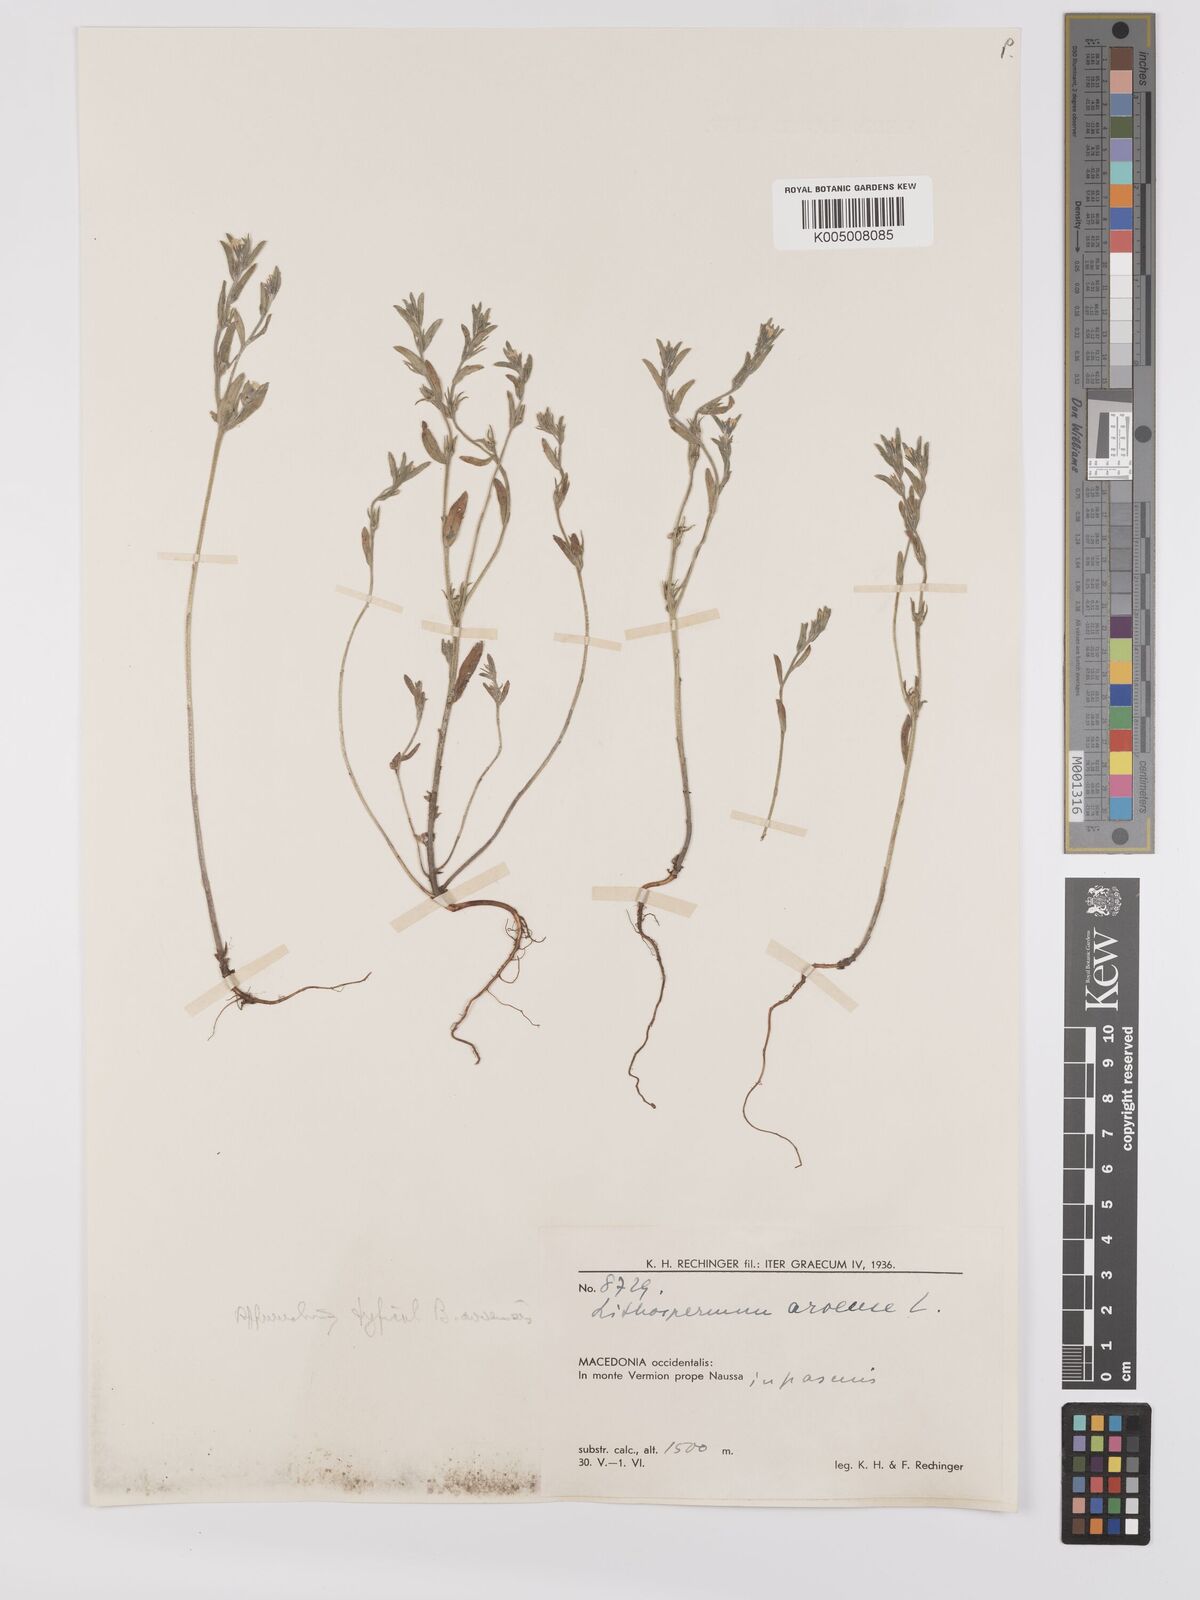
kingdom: Plantae
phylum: Tracheophyta
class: Magnoliopsida
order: Boraginales
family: Boraginaceae
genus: Buglossoides
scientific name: Buglossoides incrassata
